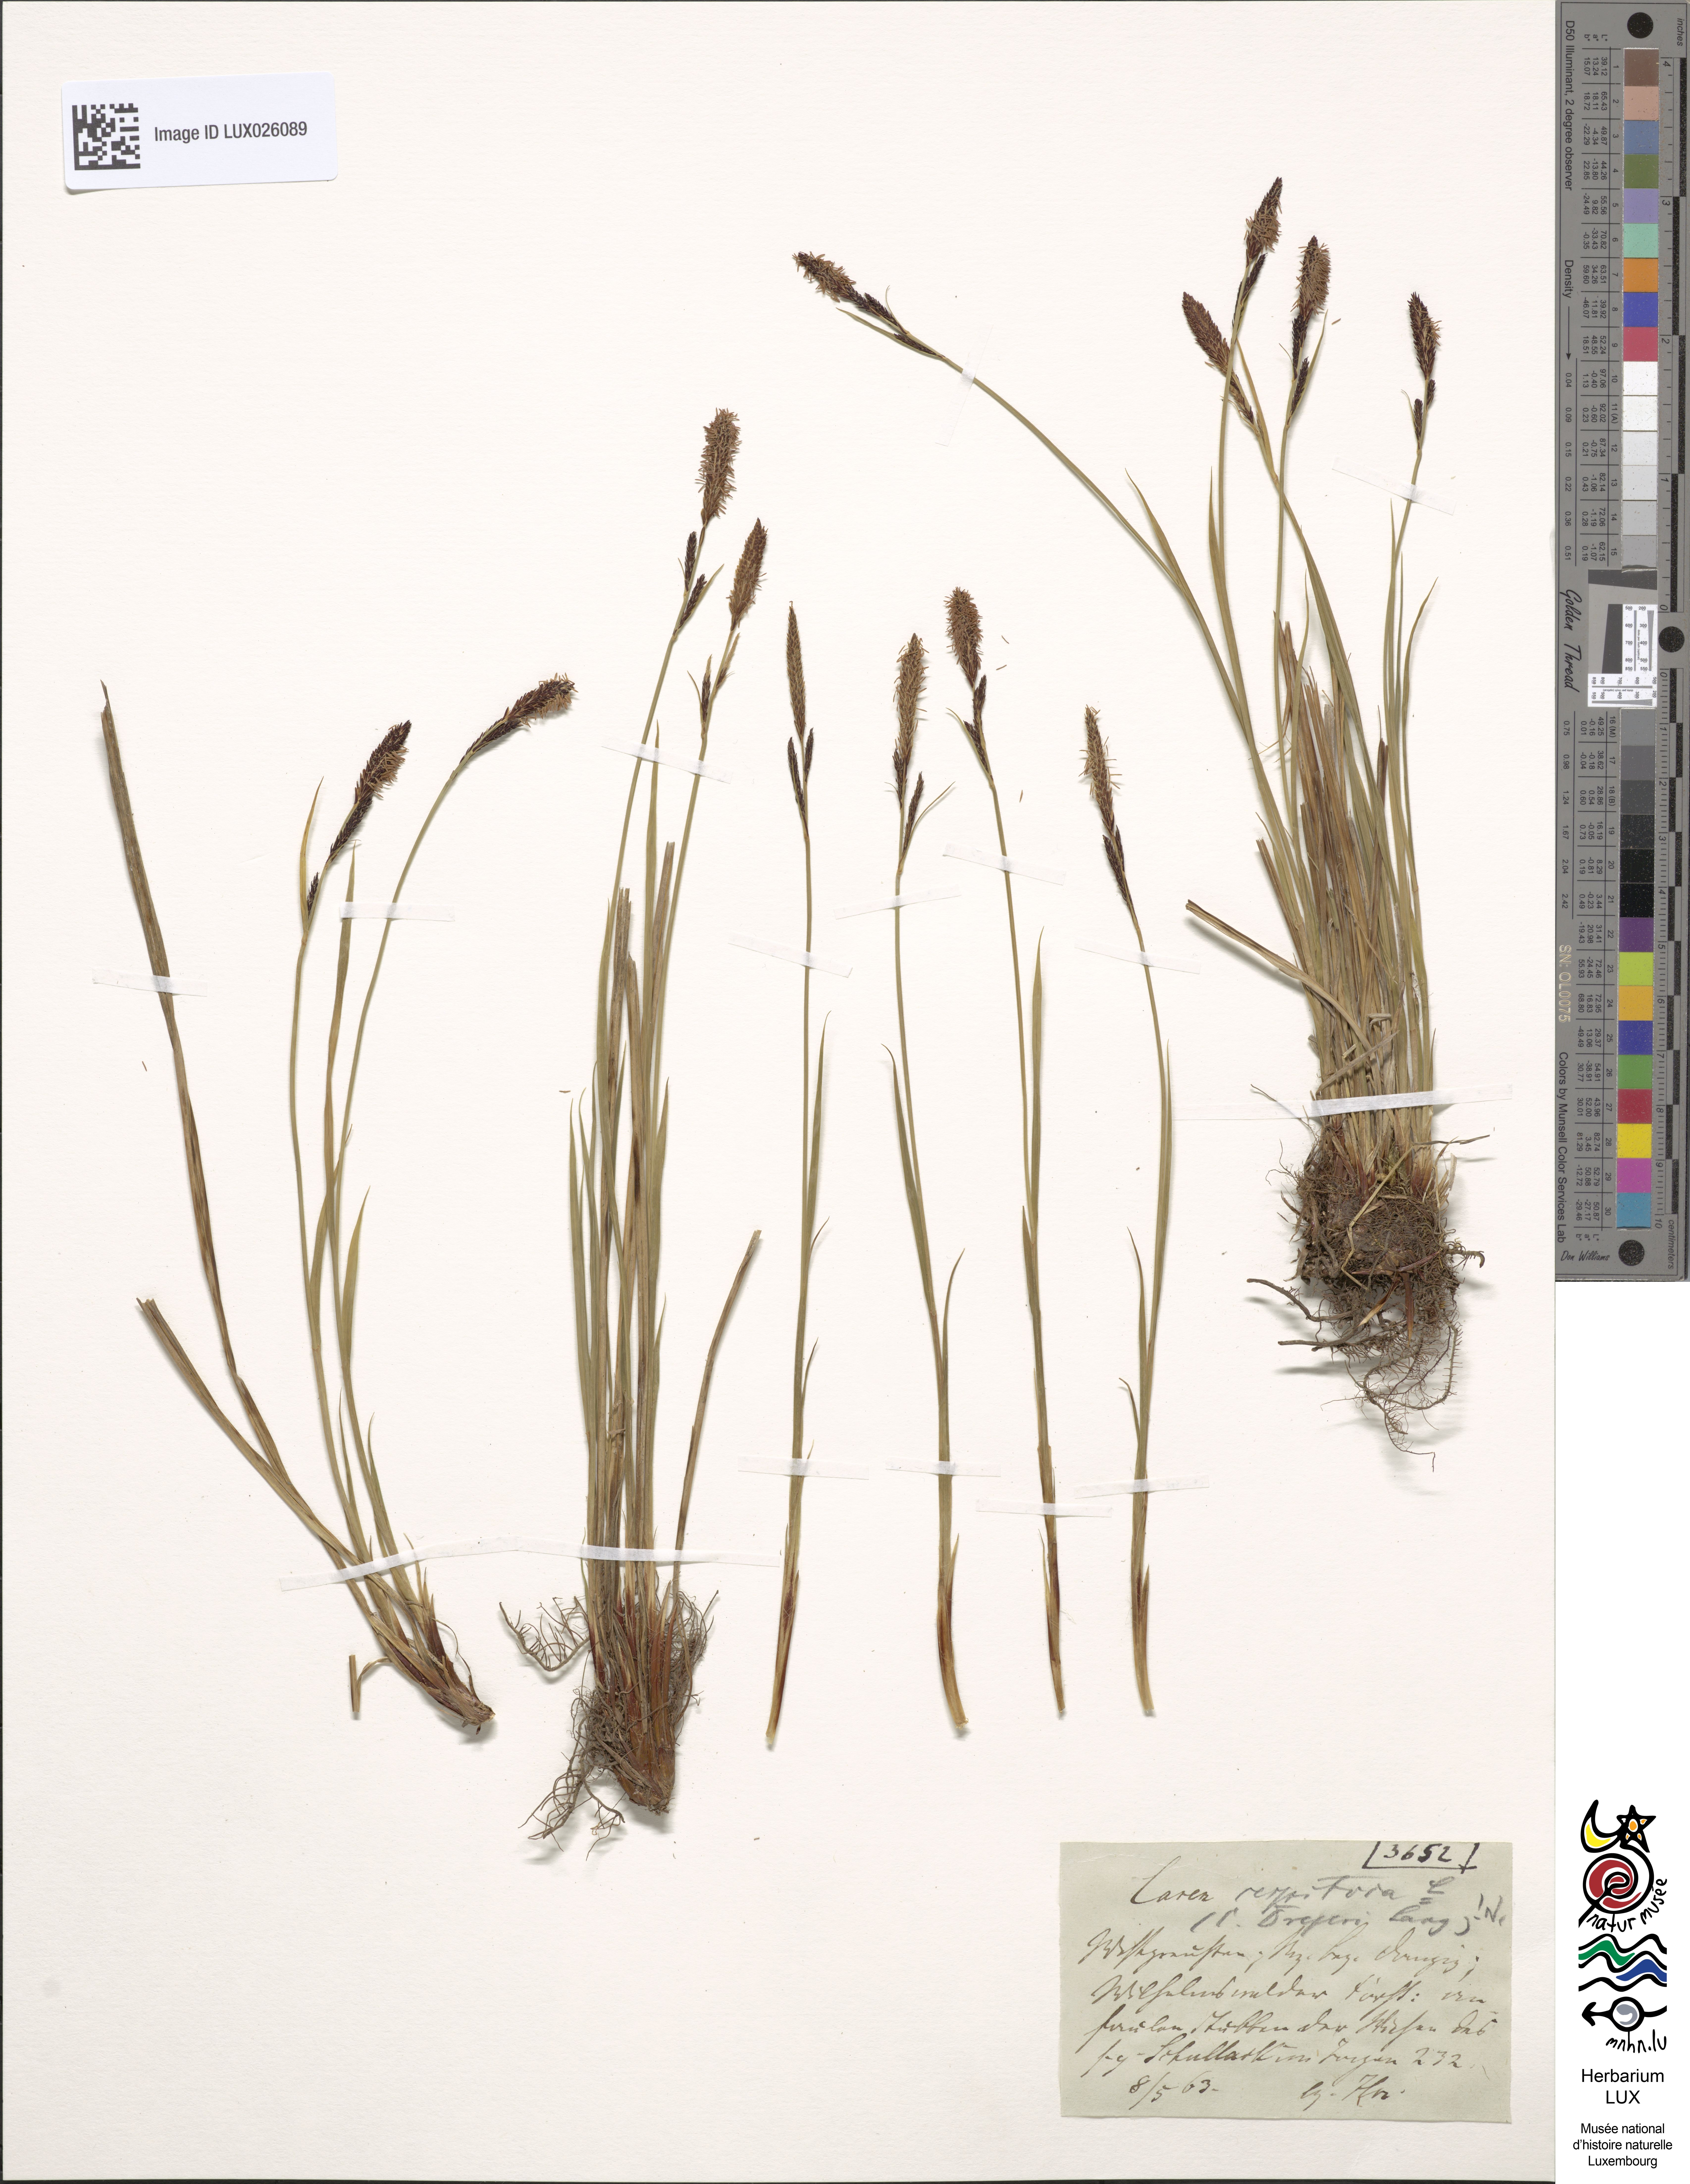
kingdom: Plantae
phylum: Tracheophyta
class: Liliopsida
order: Poales
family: Cyperaceae
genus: Carex
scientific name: Carex cespitosa
